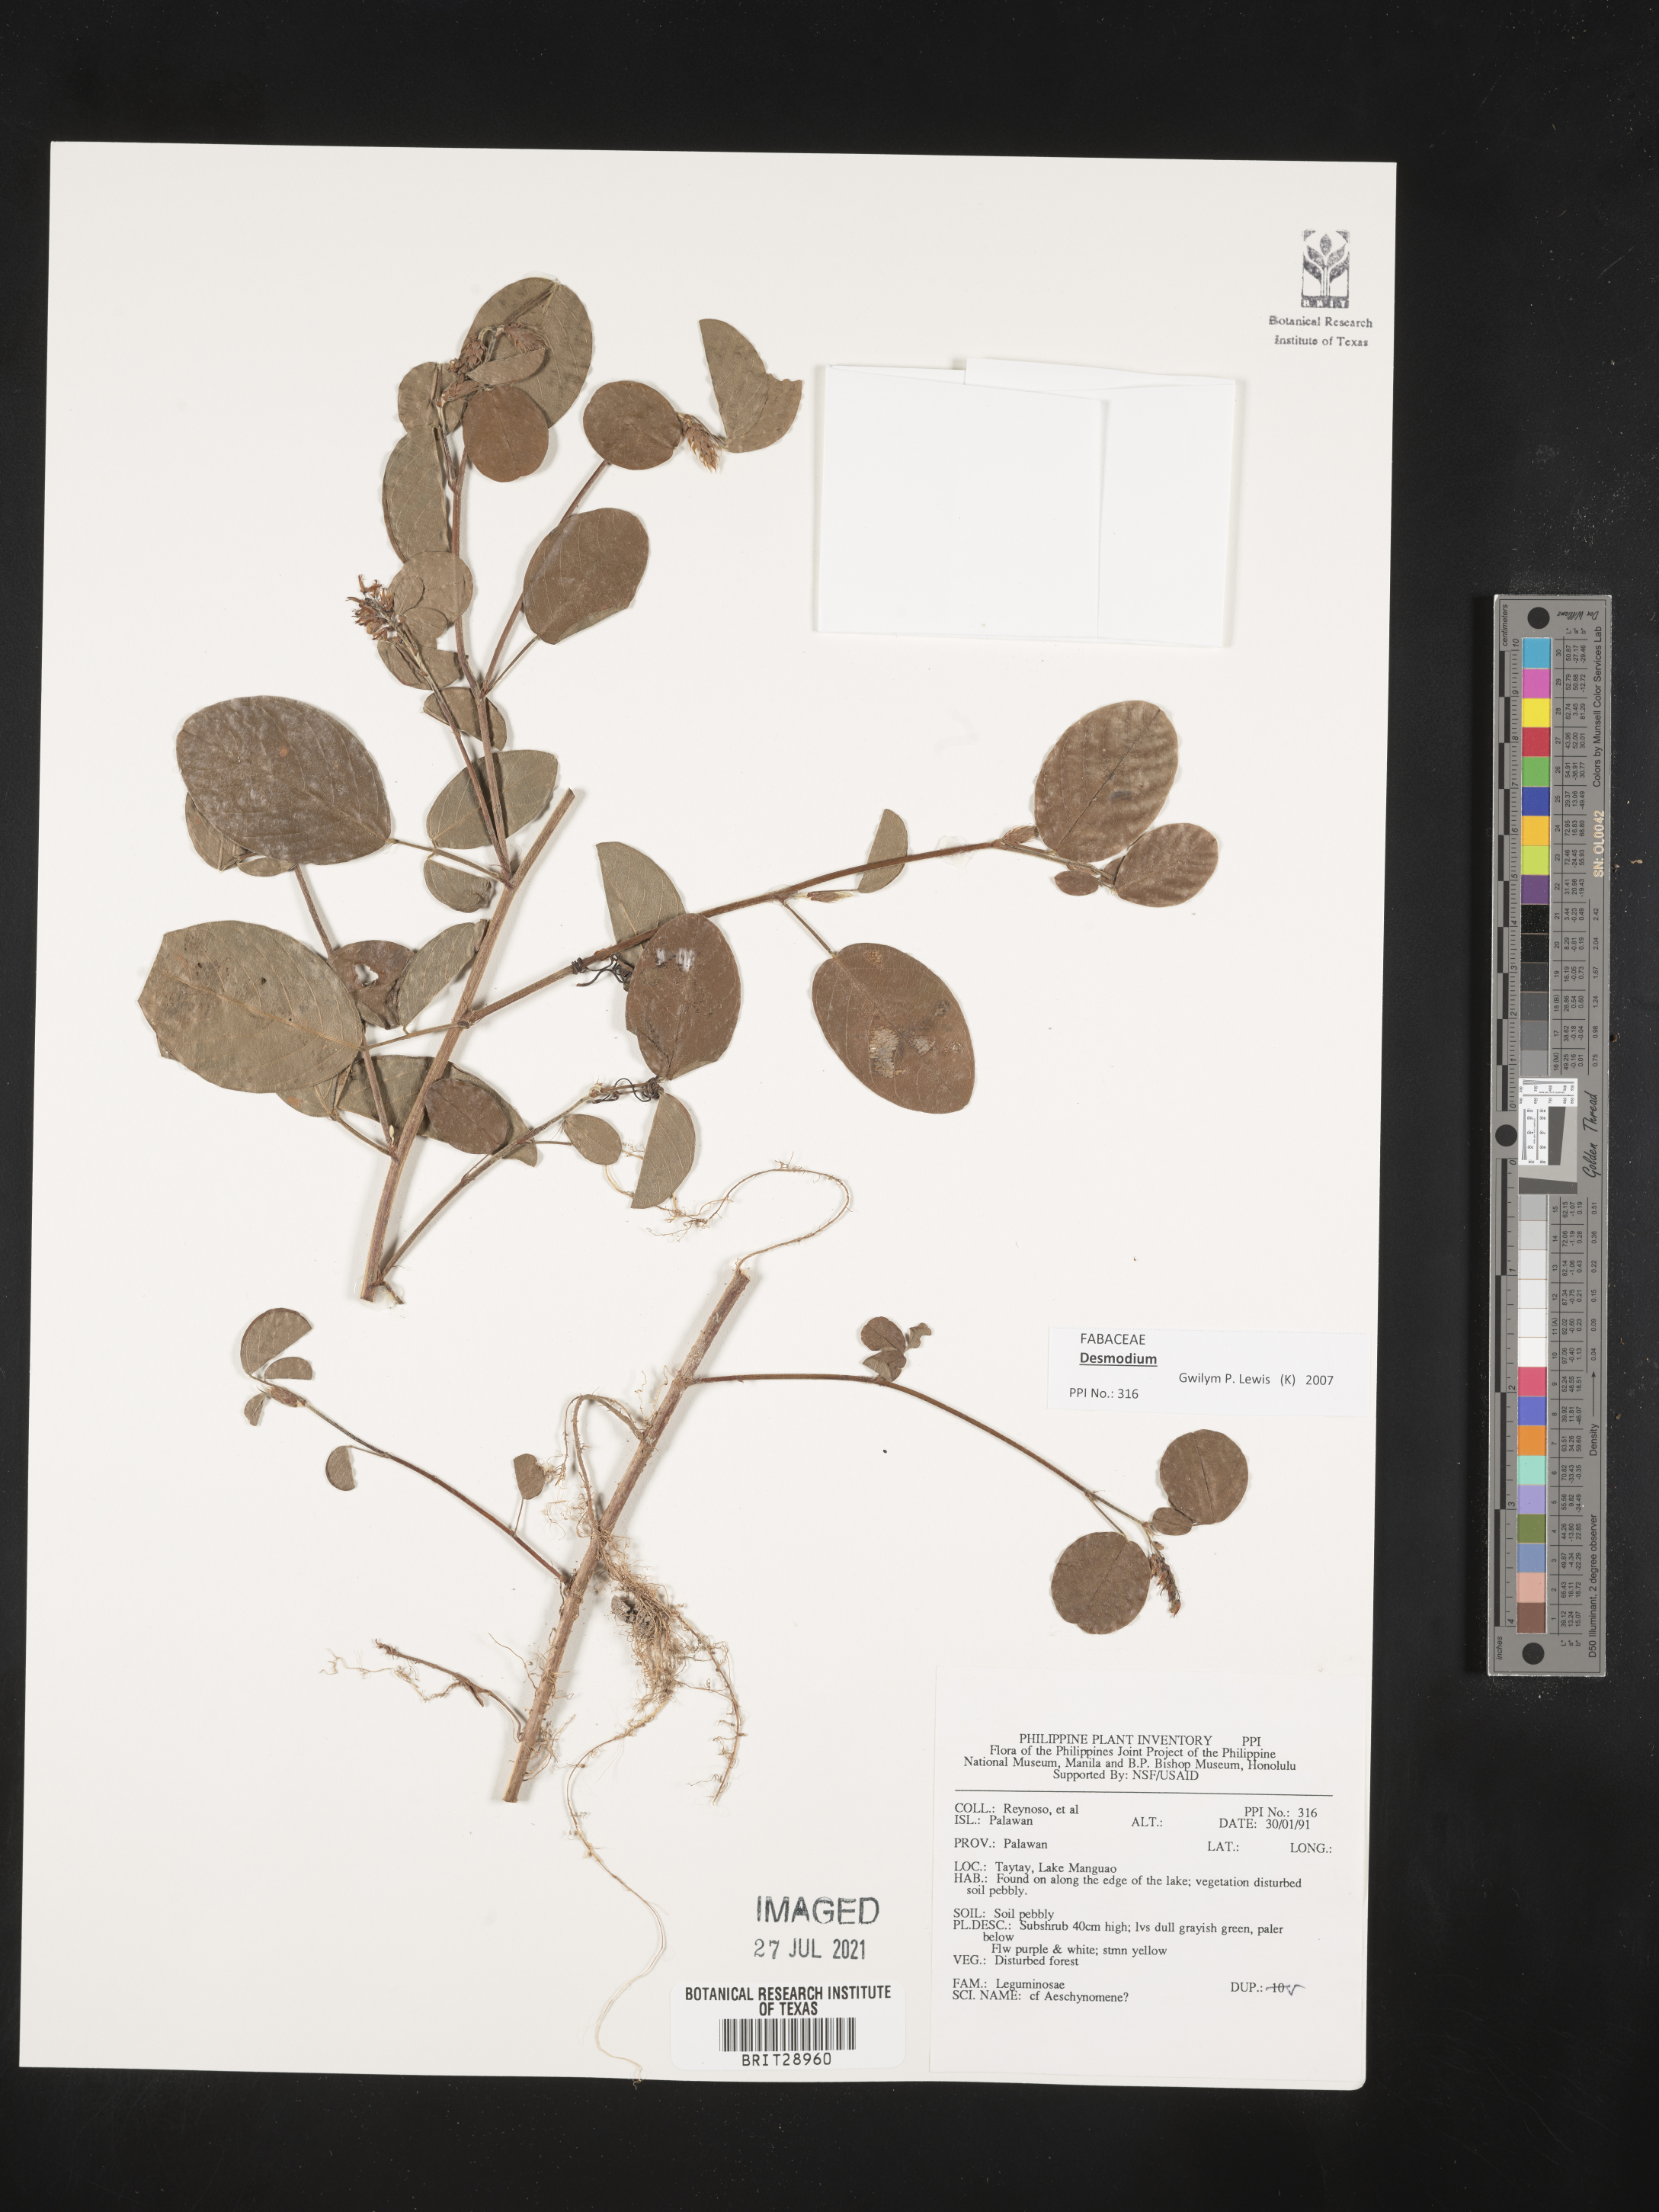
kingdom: Plantae
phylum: Tracheophyta
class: Magnoliopsida
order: Fabales
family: Fabaceae
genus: Desmodium
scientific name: Desmodium
